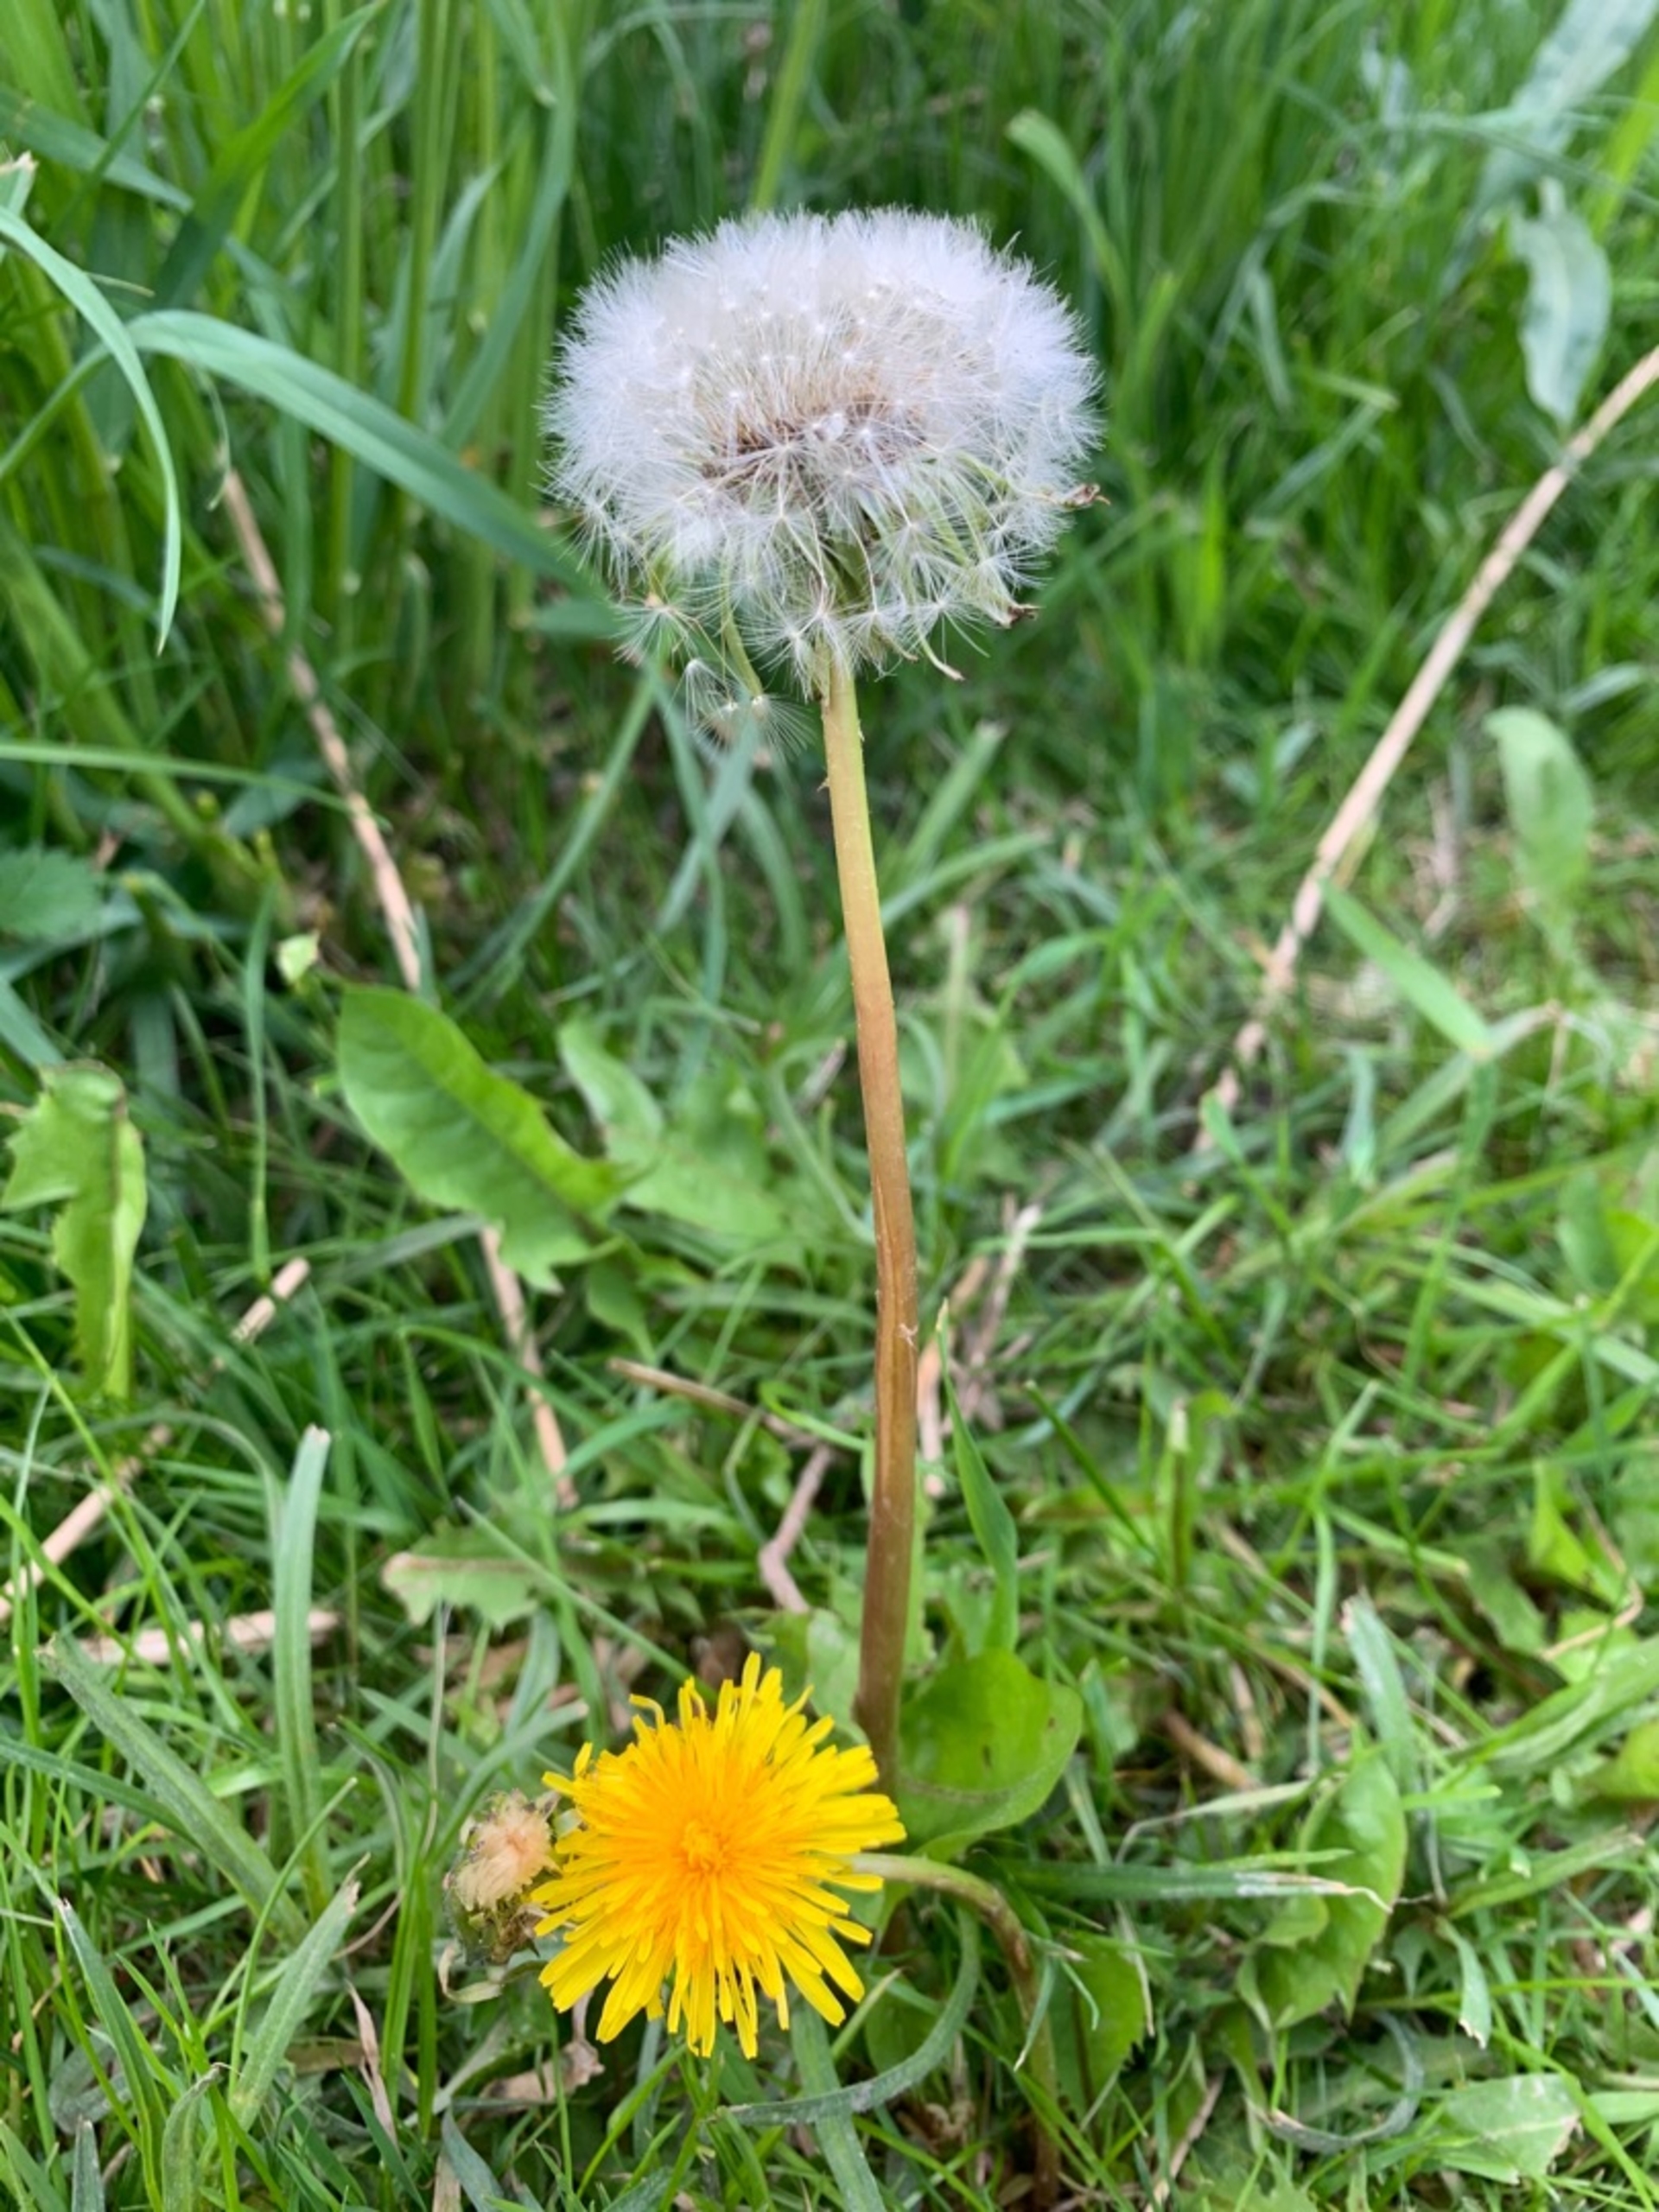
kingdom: Plantae
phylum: Tracheophyta
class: Magnoliopsida
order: Asterales
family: Asteraceae
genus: Taraxacum
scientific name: Taraxacum
